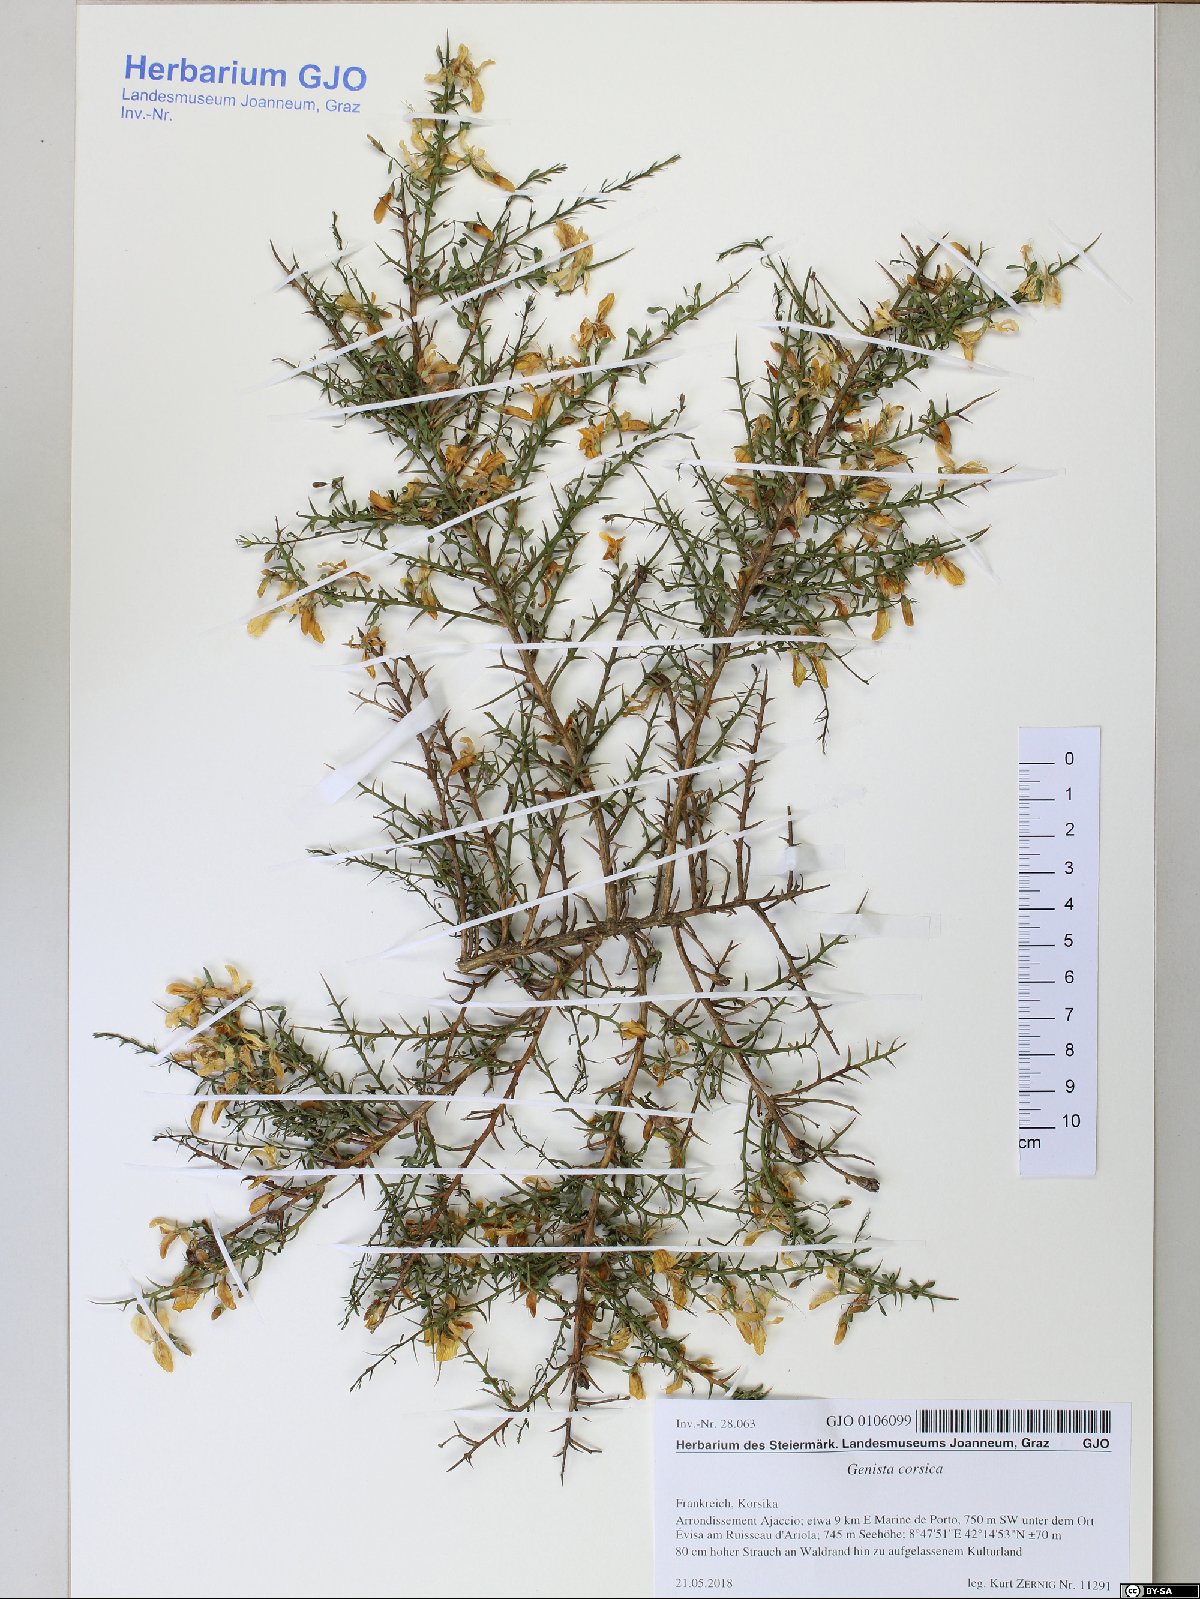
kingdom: Plantae
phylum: Tracheophyta
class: Magnoliopsida
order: Fabales
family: Fabaceae
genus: Genista
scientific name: Genista corsica
